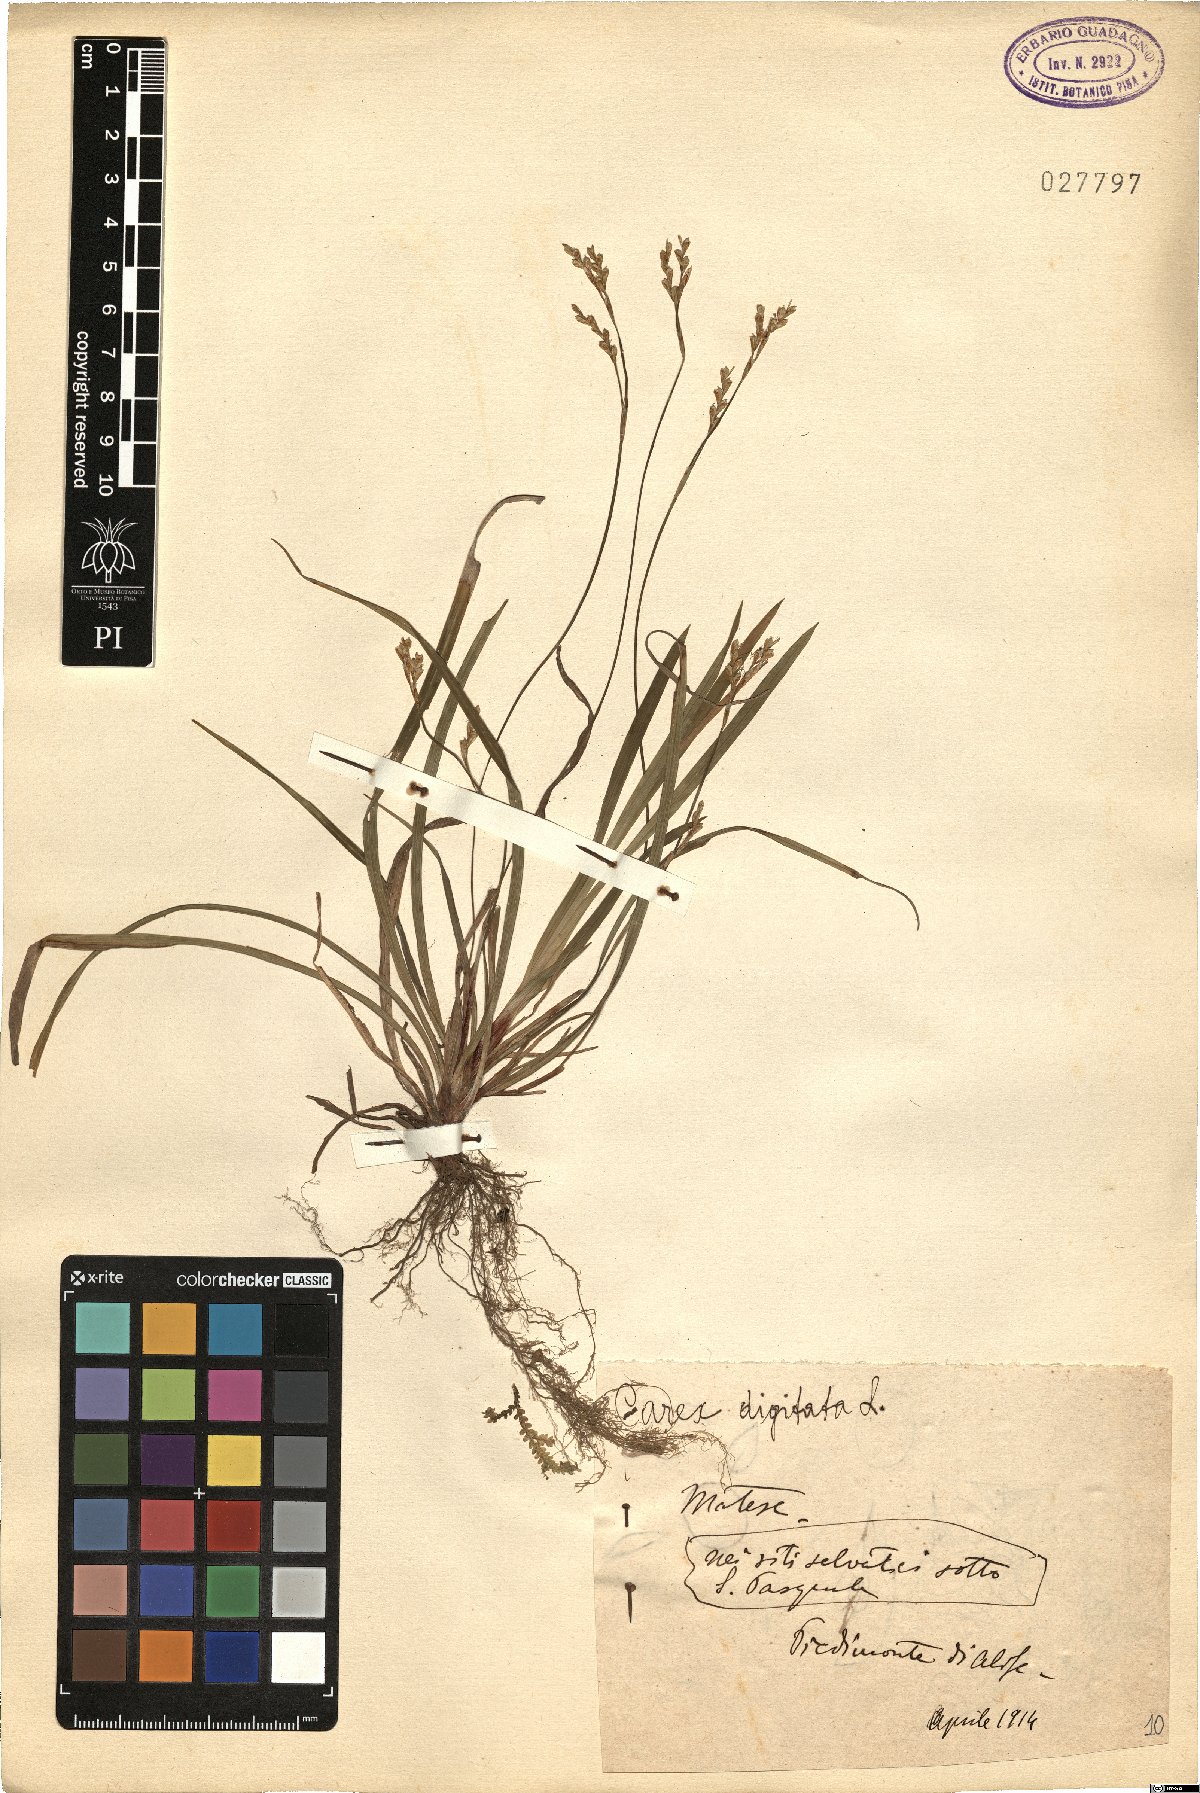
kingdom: Plantae
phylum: Tracheophyta
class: Liliopsida
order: Poales
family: Cyperaceae
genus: Carex
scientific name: Carex digitata
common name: Fingered sedge
